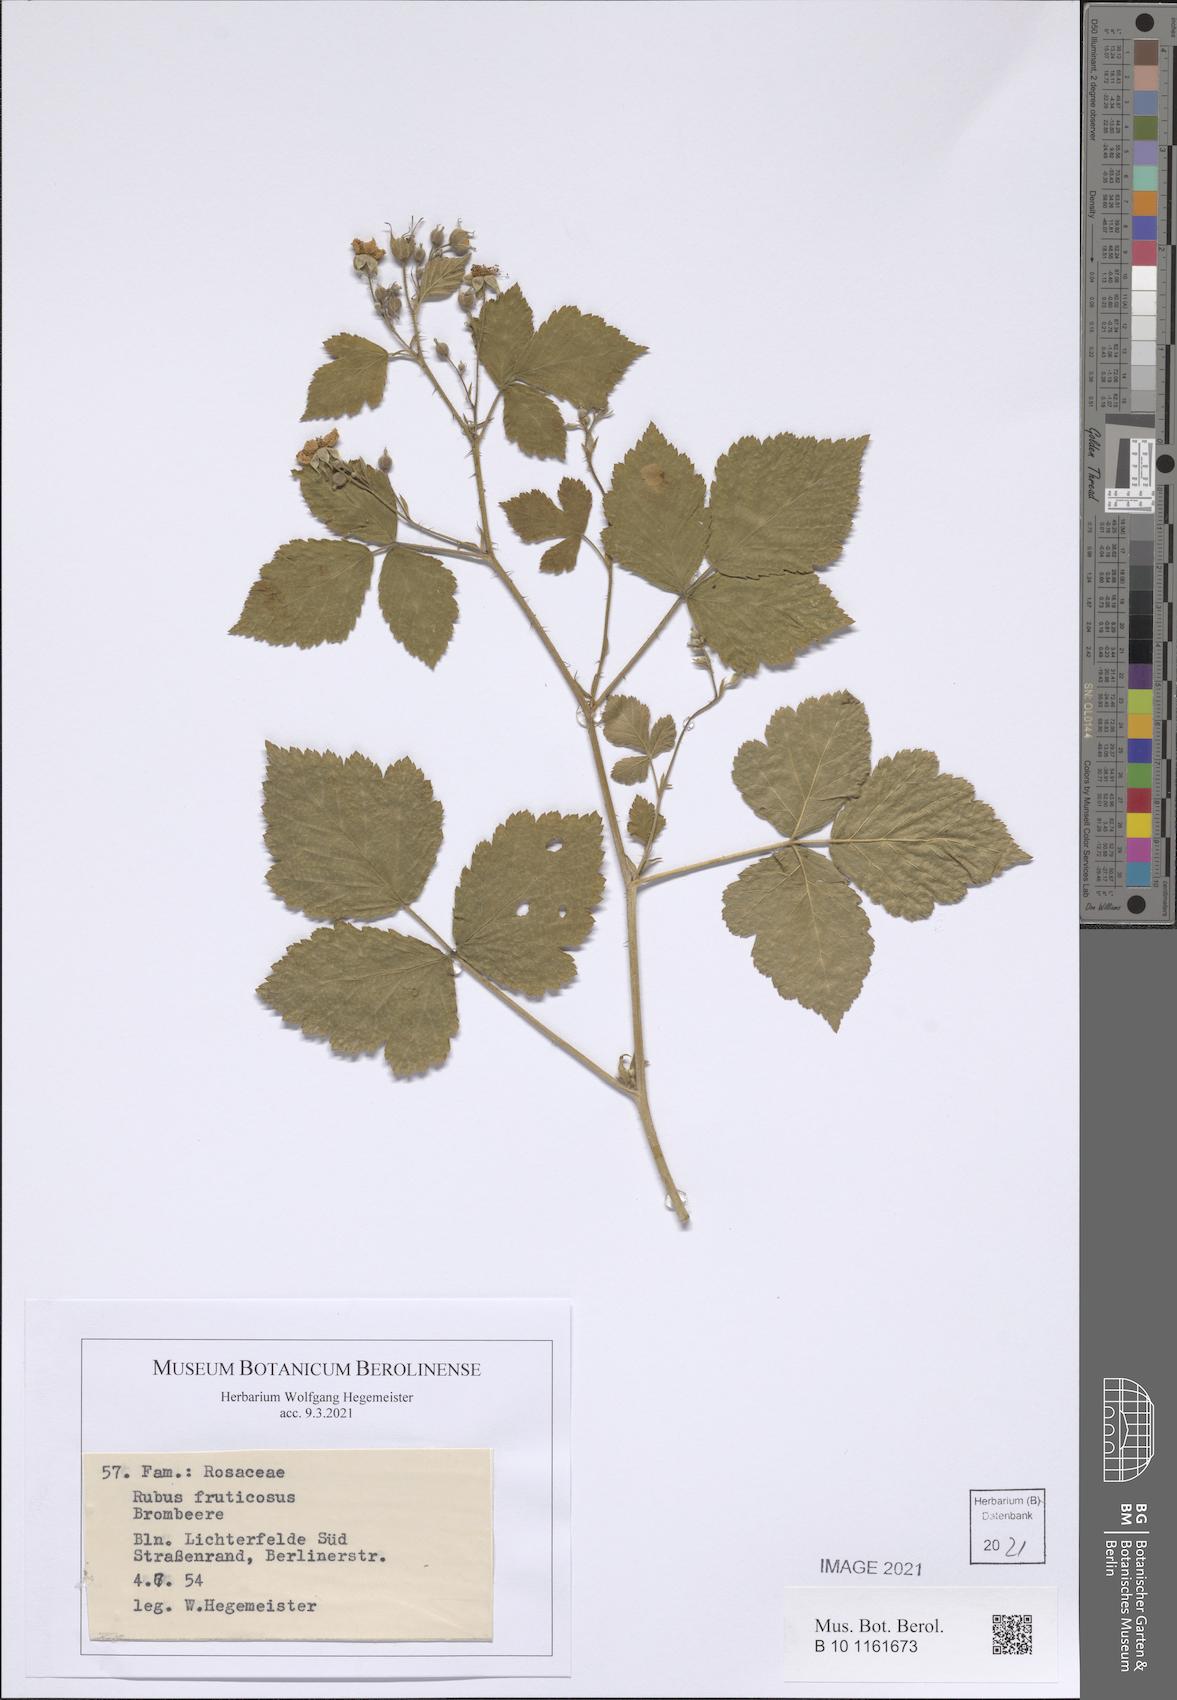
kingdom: Plantae
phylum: Tracheophyta
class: Magnoliopsida
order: Rosales
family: Rosaceae
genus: Rubus
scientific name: Rubus fruticosus
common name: Blackberry, bramble
